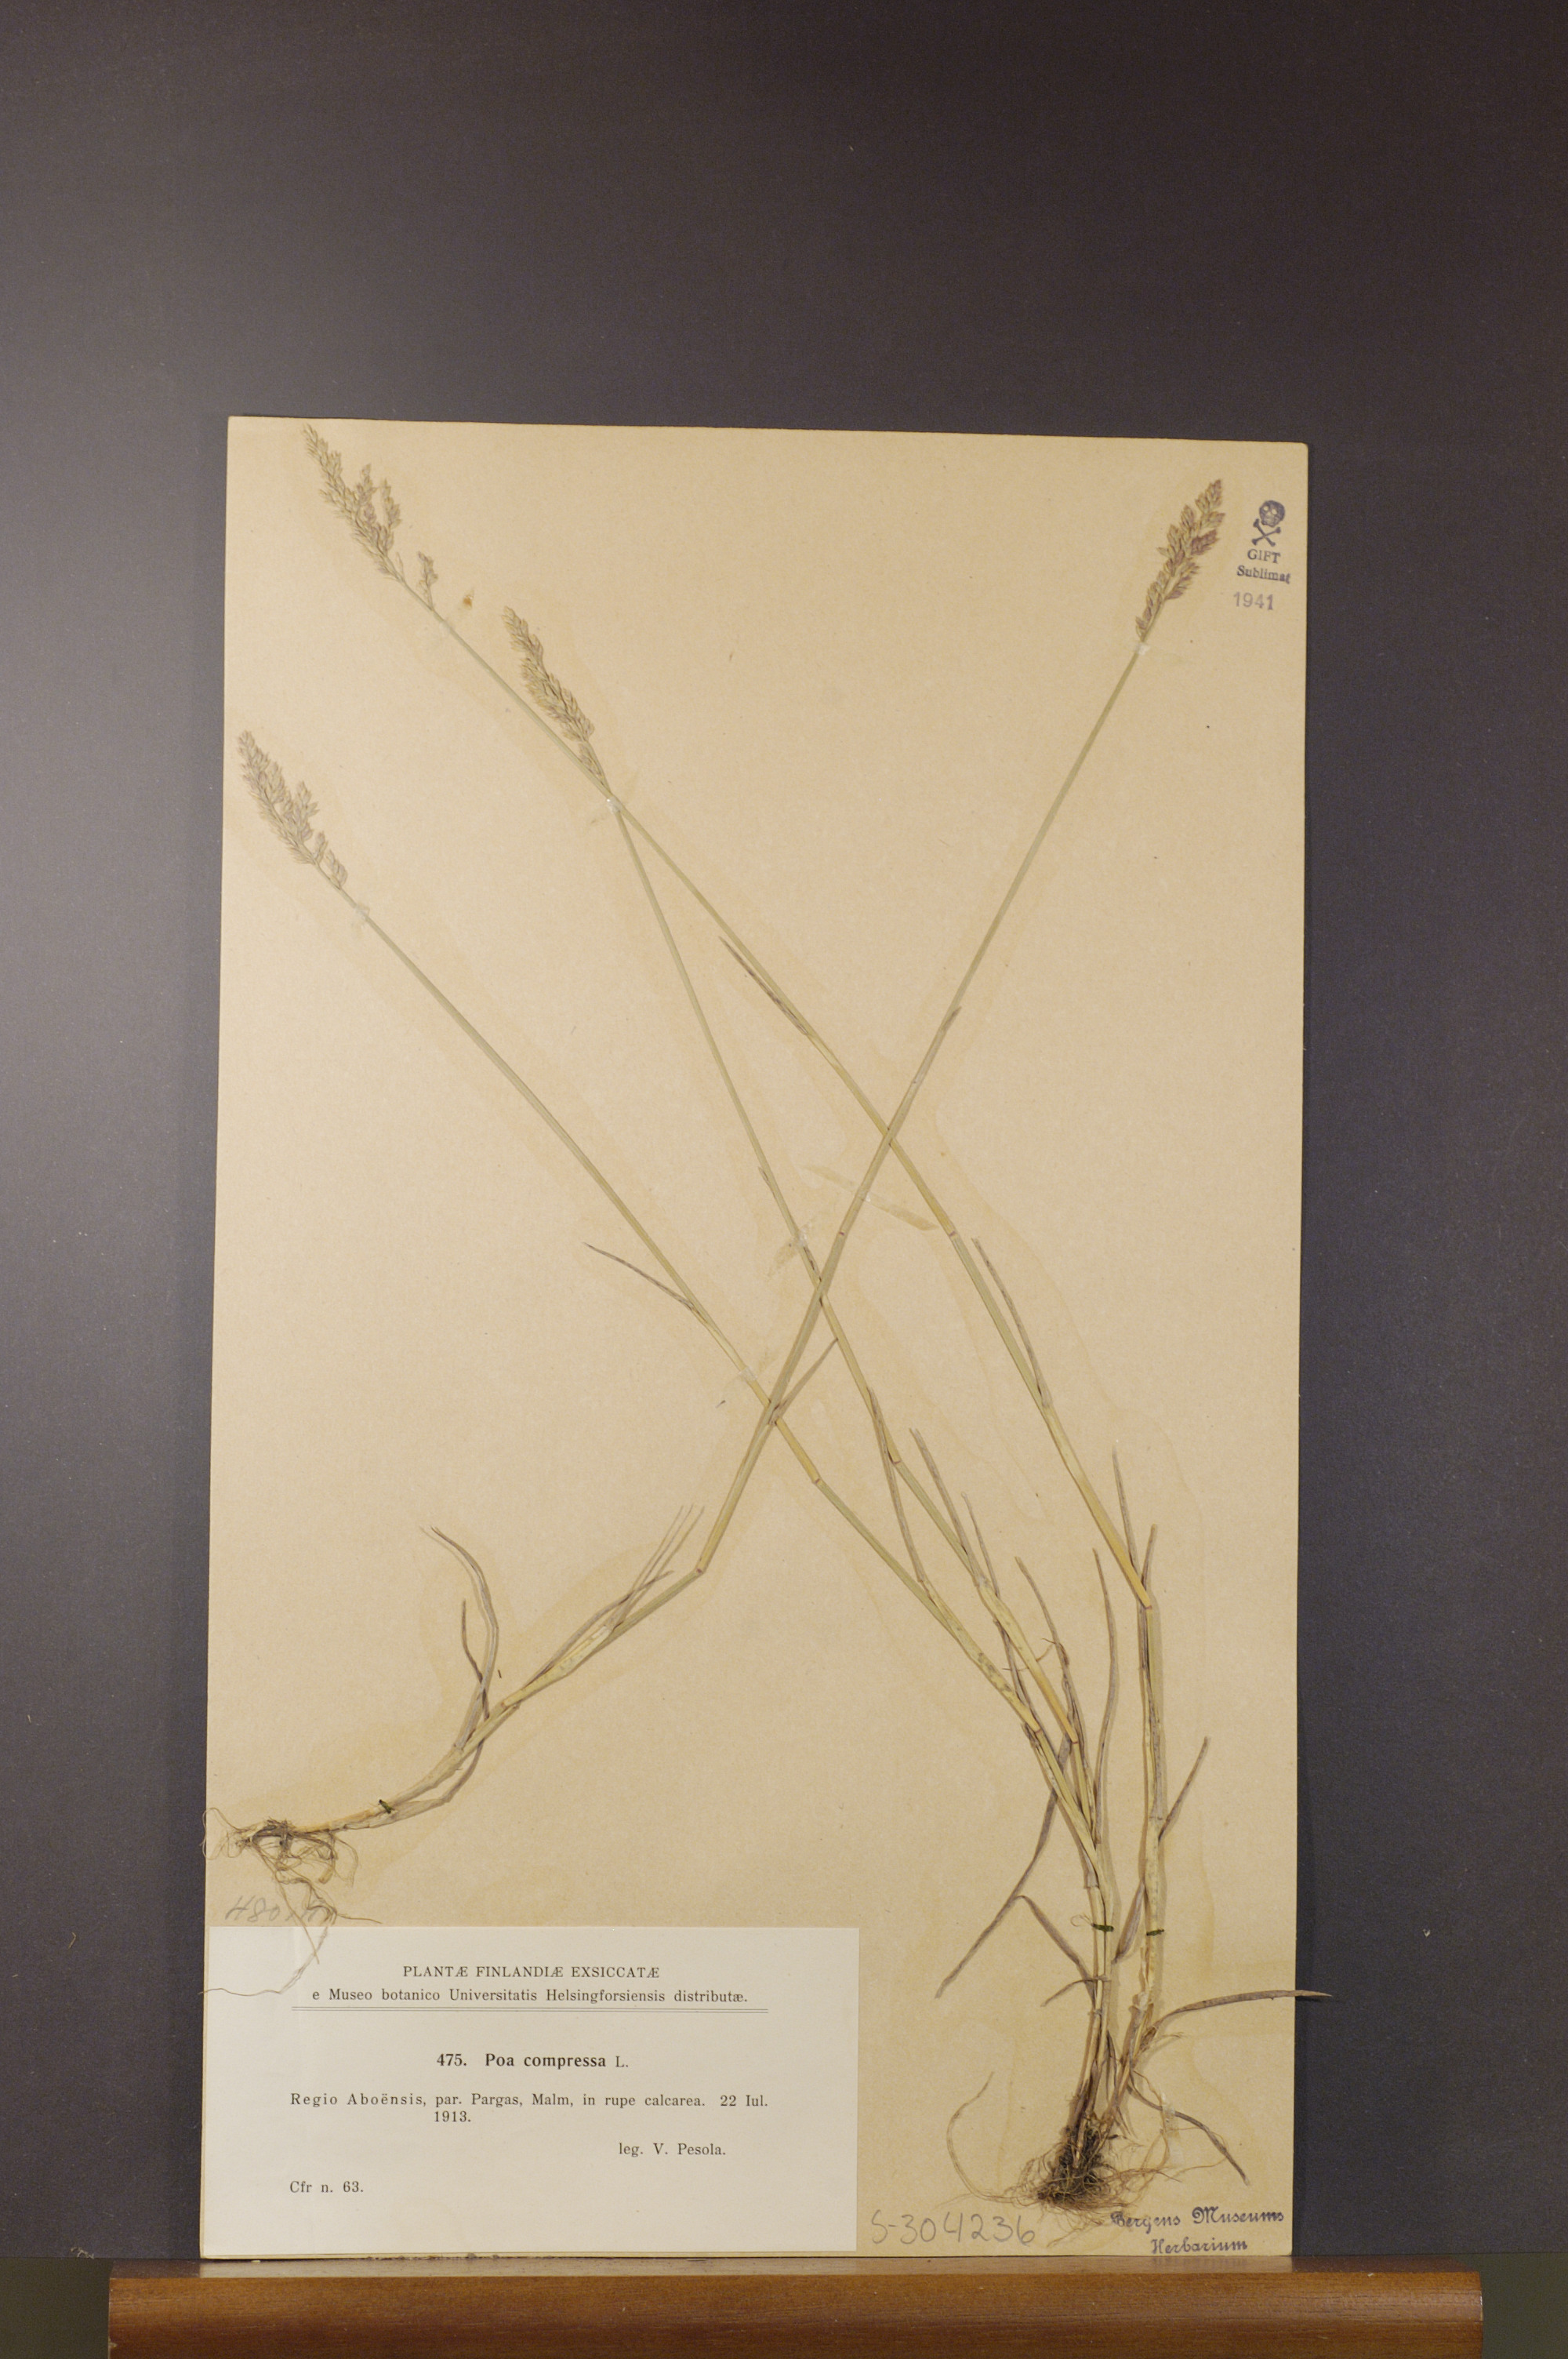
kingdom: Plantae
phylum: Tracheophyta
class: Liliopsida
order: Poales
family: Poaceae
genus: Poa
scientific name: Poa compressa
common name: Canada bluegrass
